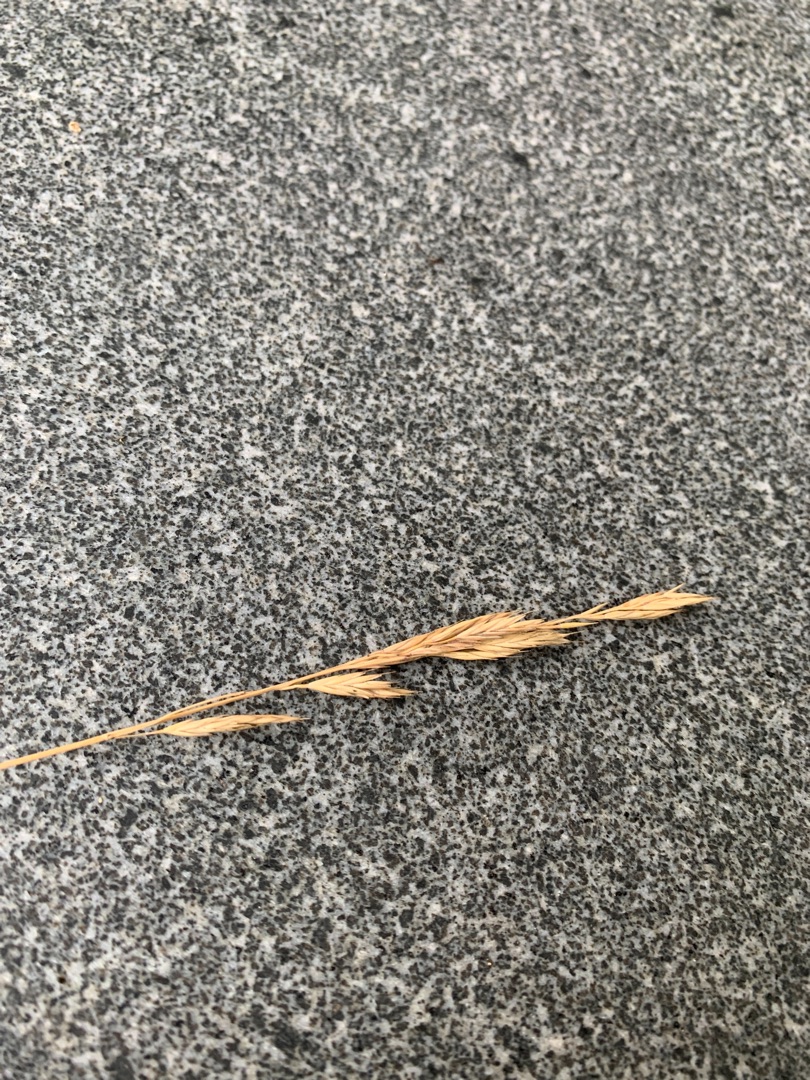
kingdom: Plantae
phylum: Tracheophyta
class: Liliopsida
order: Poales
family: Poaceae
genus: Festuca
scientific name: Festuca
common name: Svingelslægten
